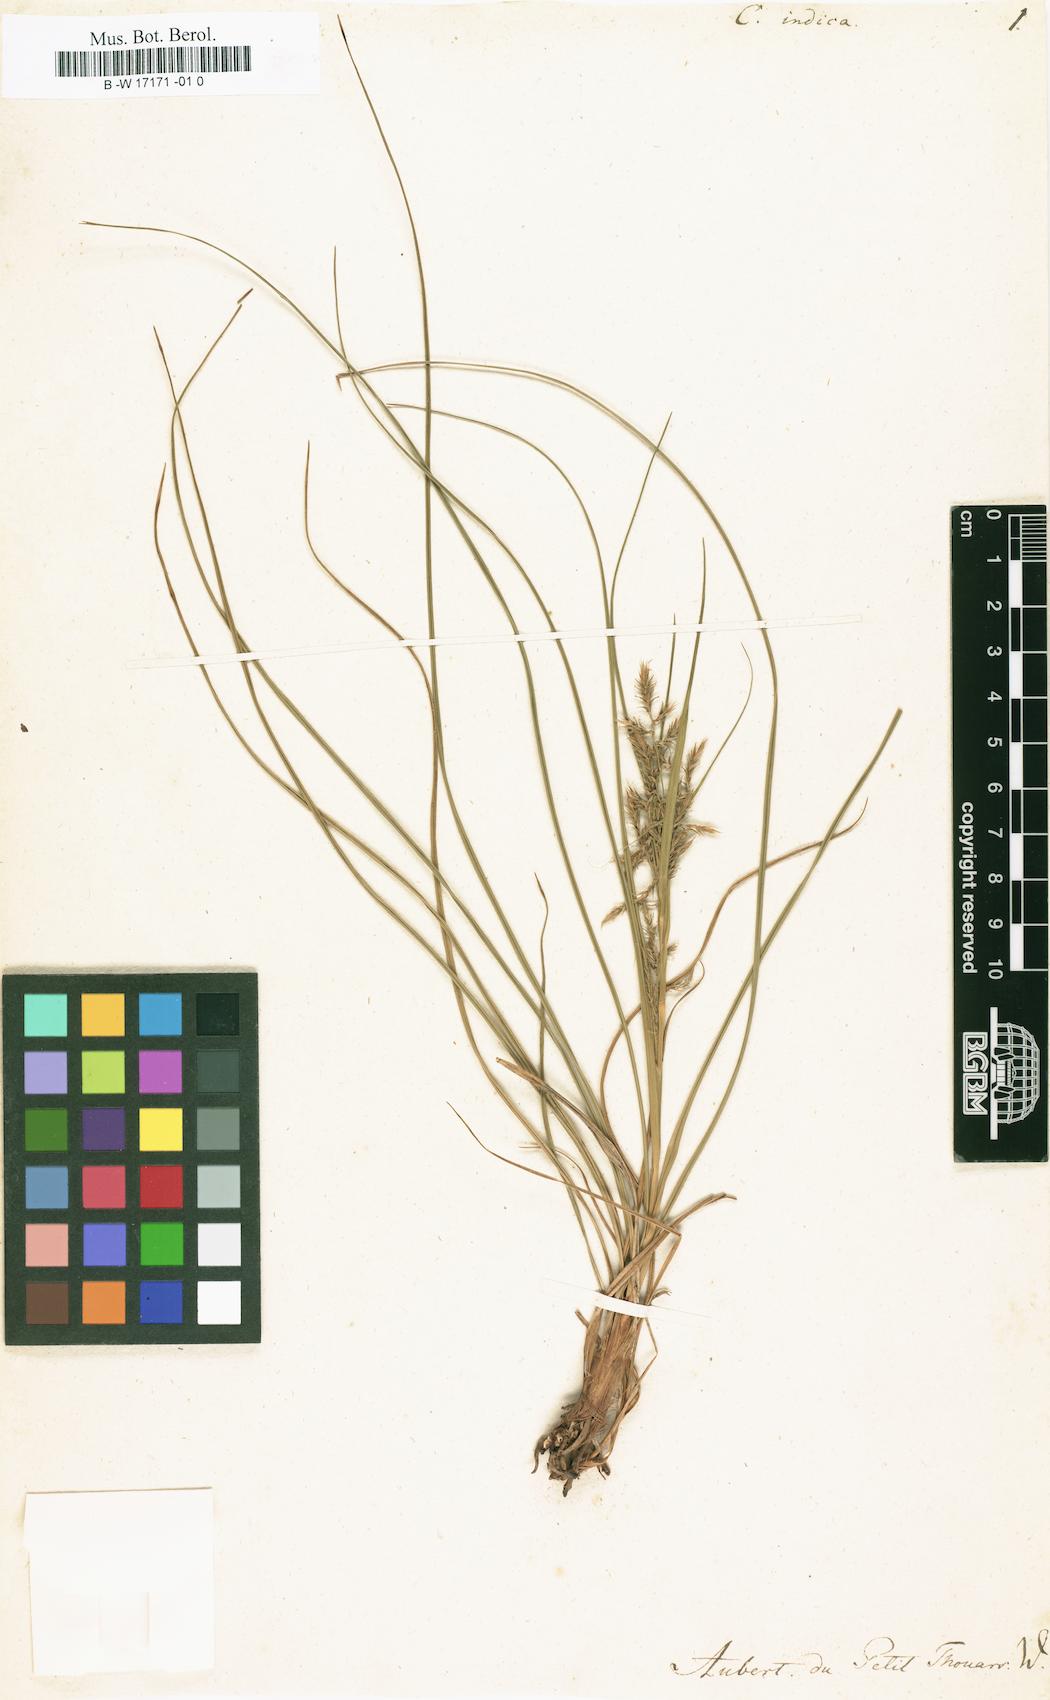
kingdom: Plantae
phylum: Tracheophyta
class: Liliopsida
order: Poales
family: Cyperaceae
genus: Carex
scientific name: Carex indica
